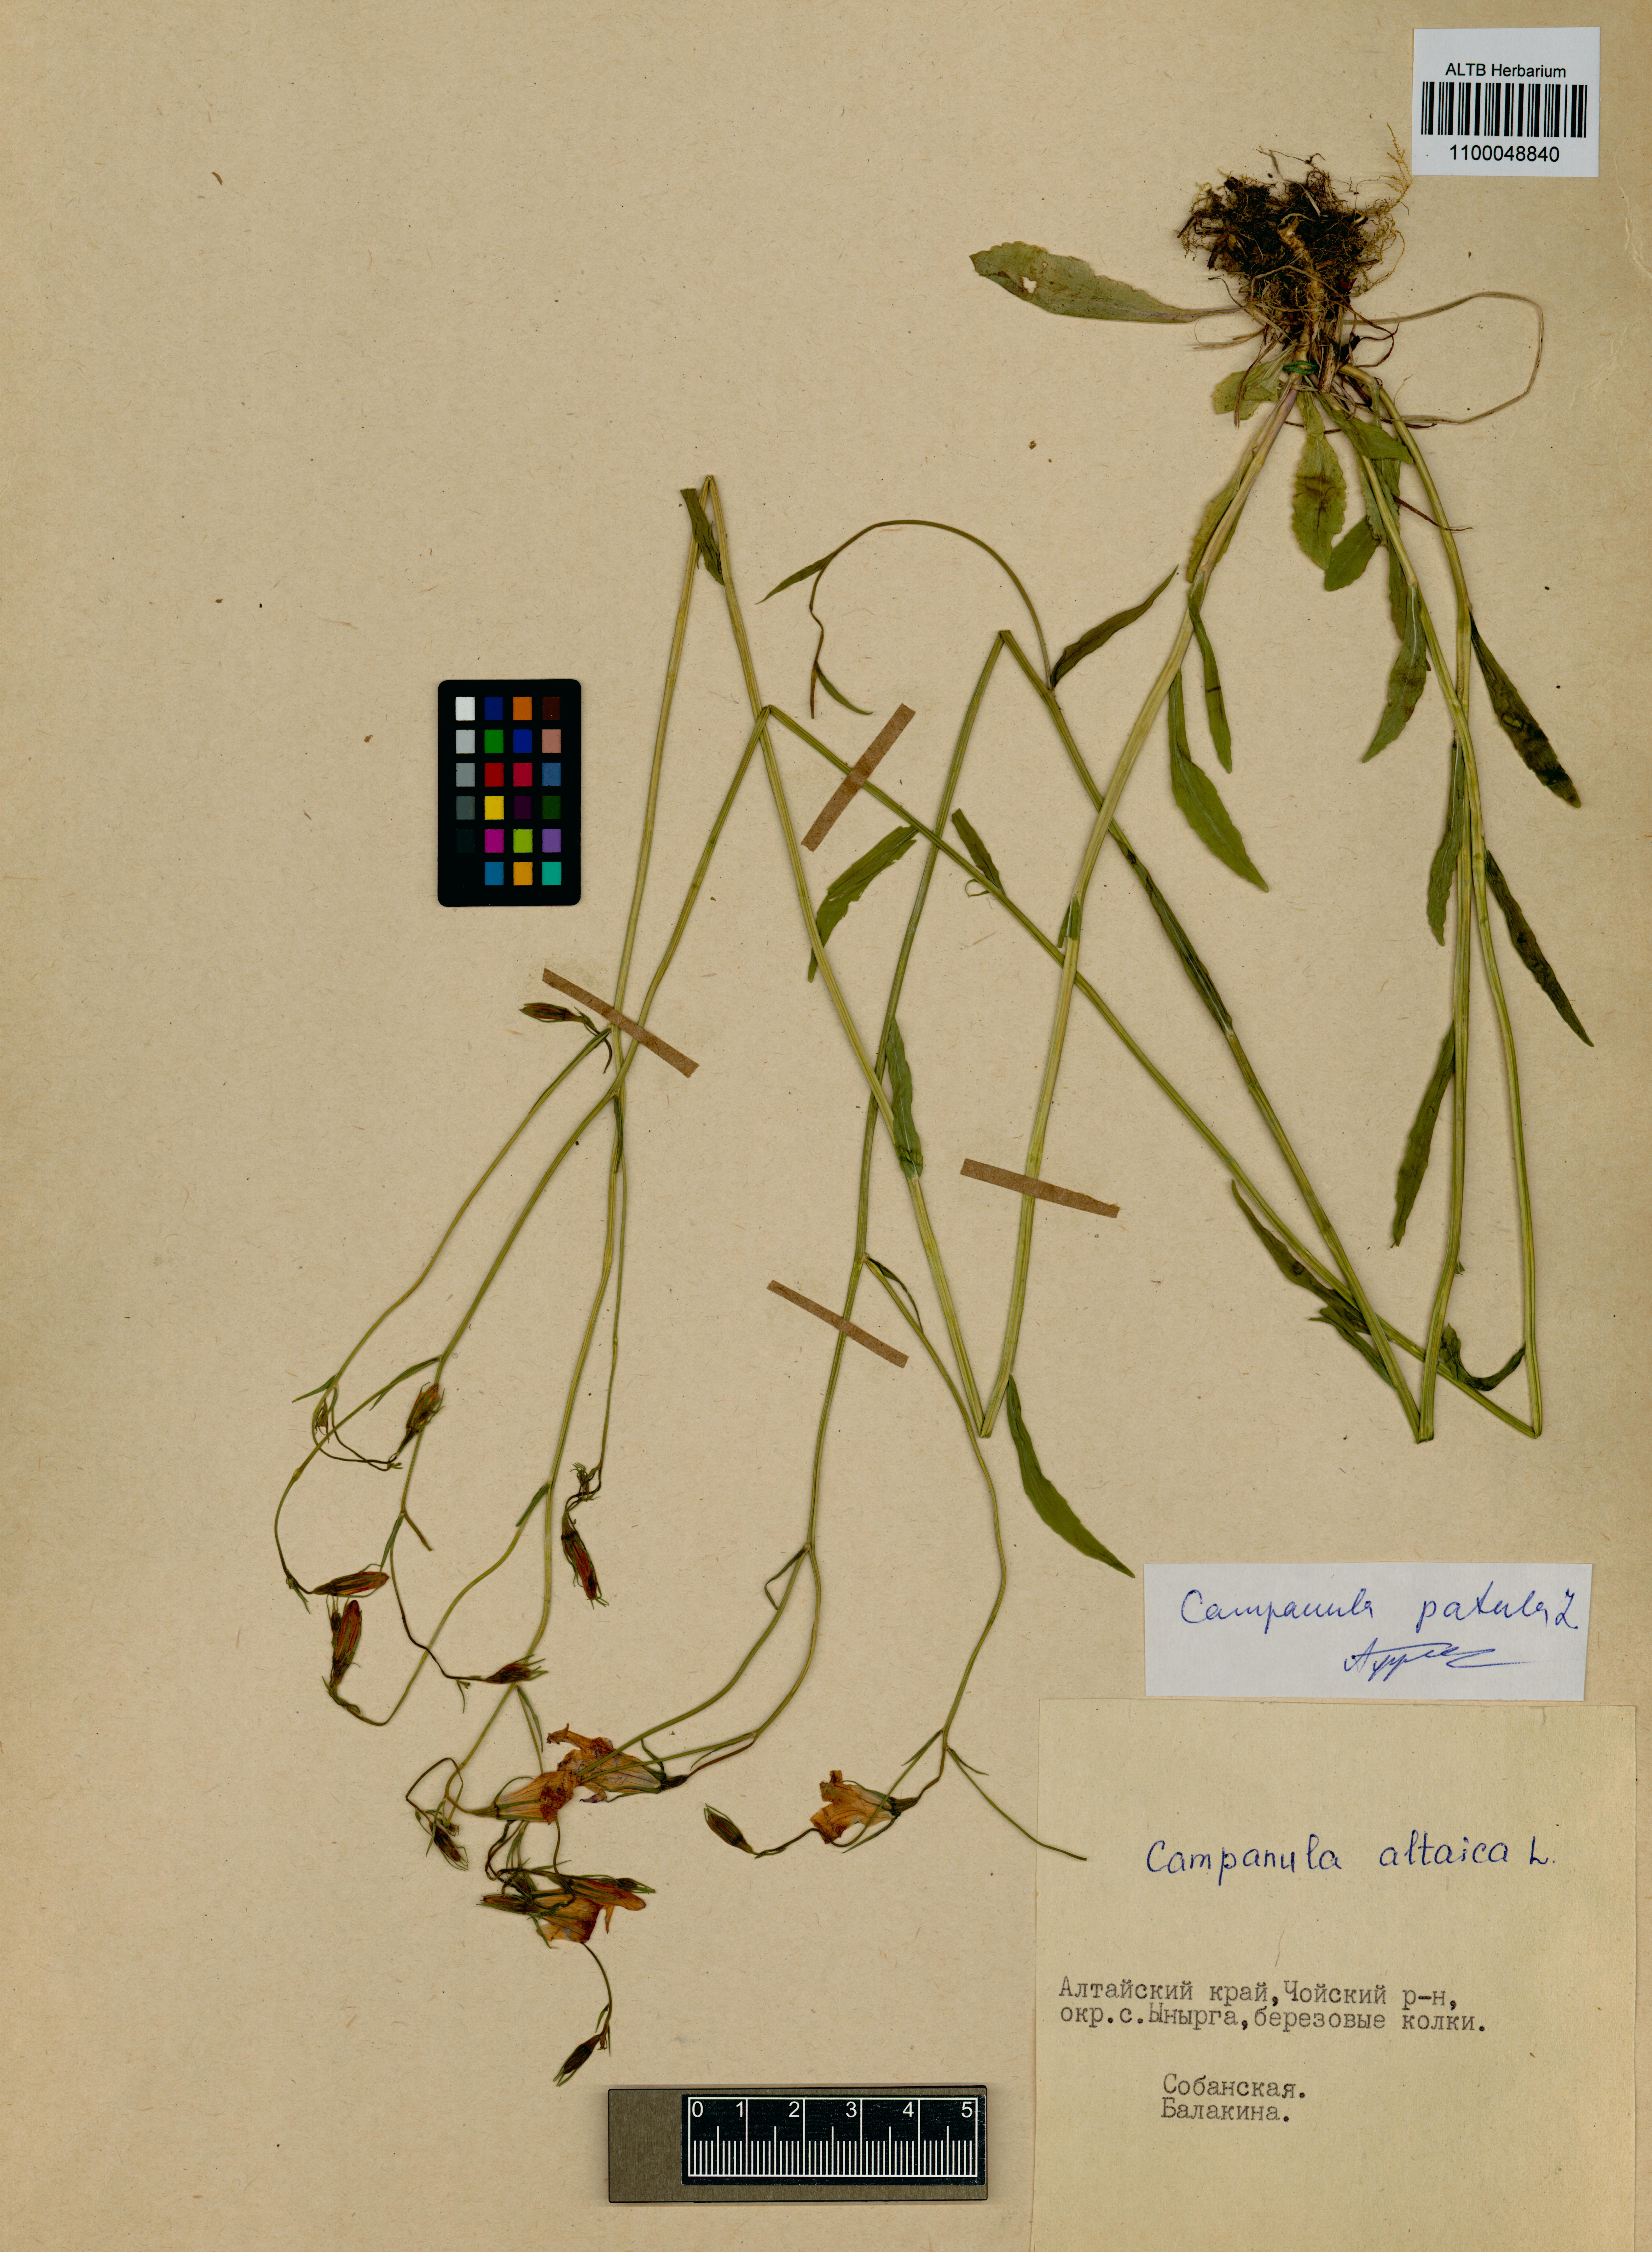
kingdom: Plantae
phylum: Tracheophyta
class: Magnoliopsida
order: Asterales
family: Campanulaceae
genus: Campanula
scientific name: Campanula patula
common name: Spreading bellflower
